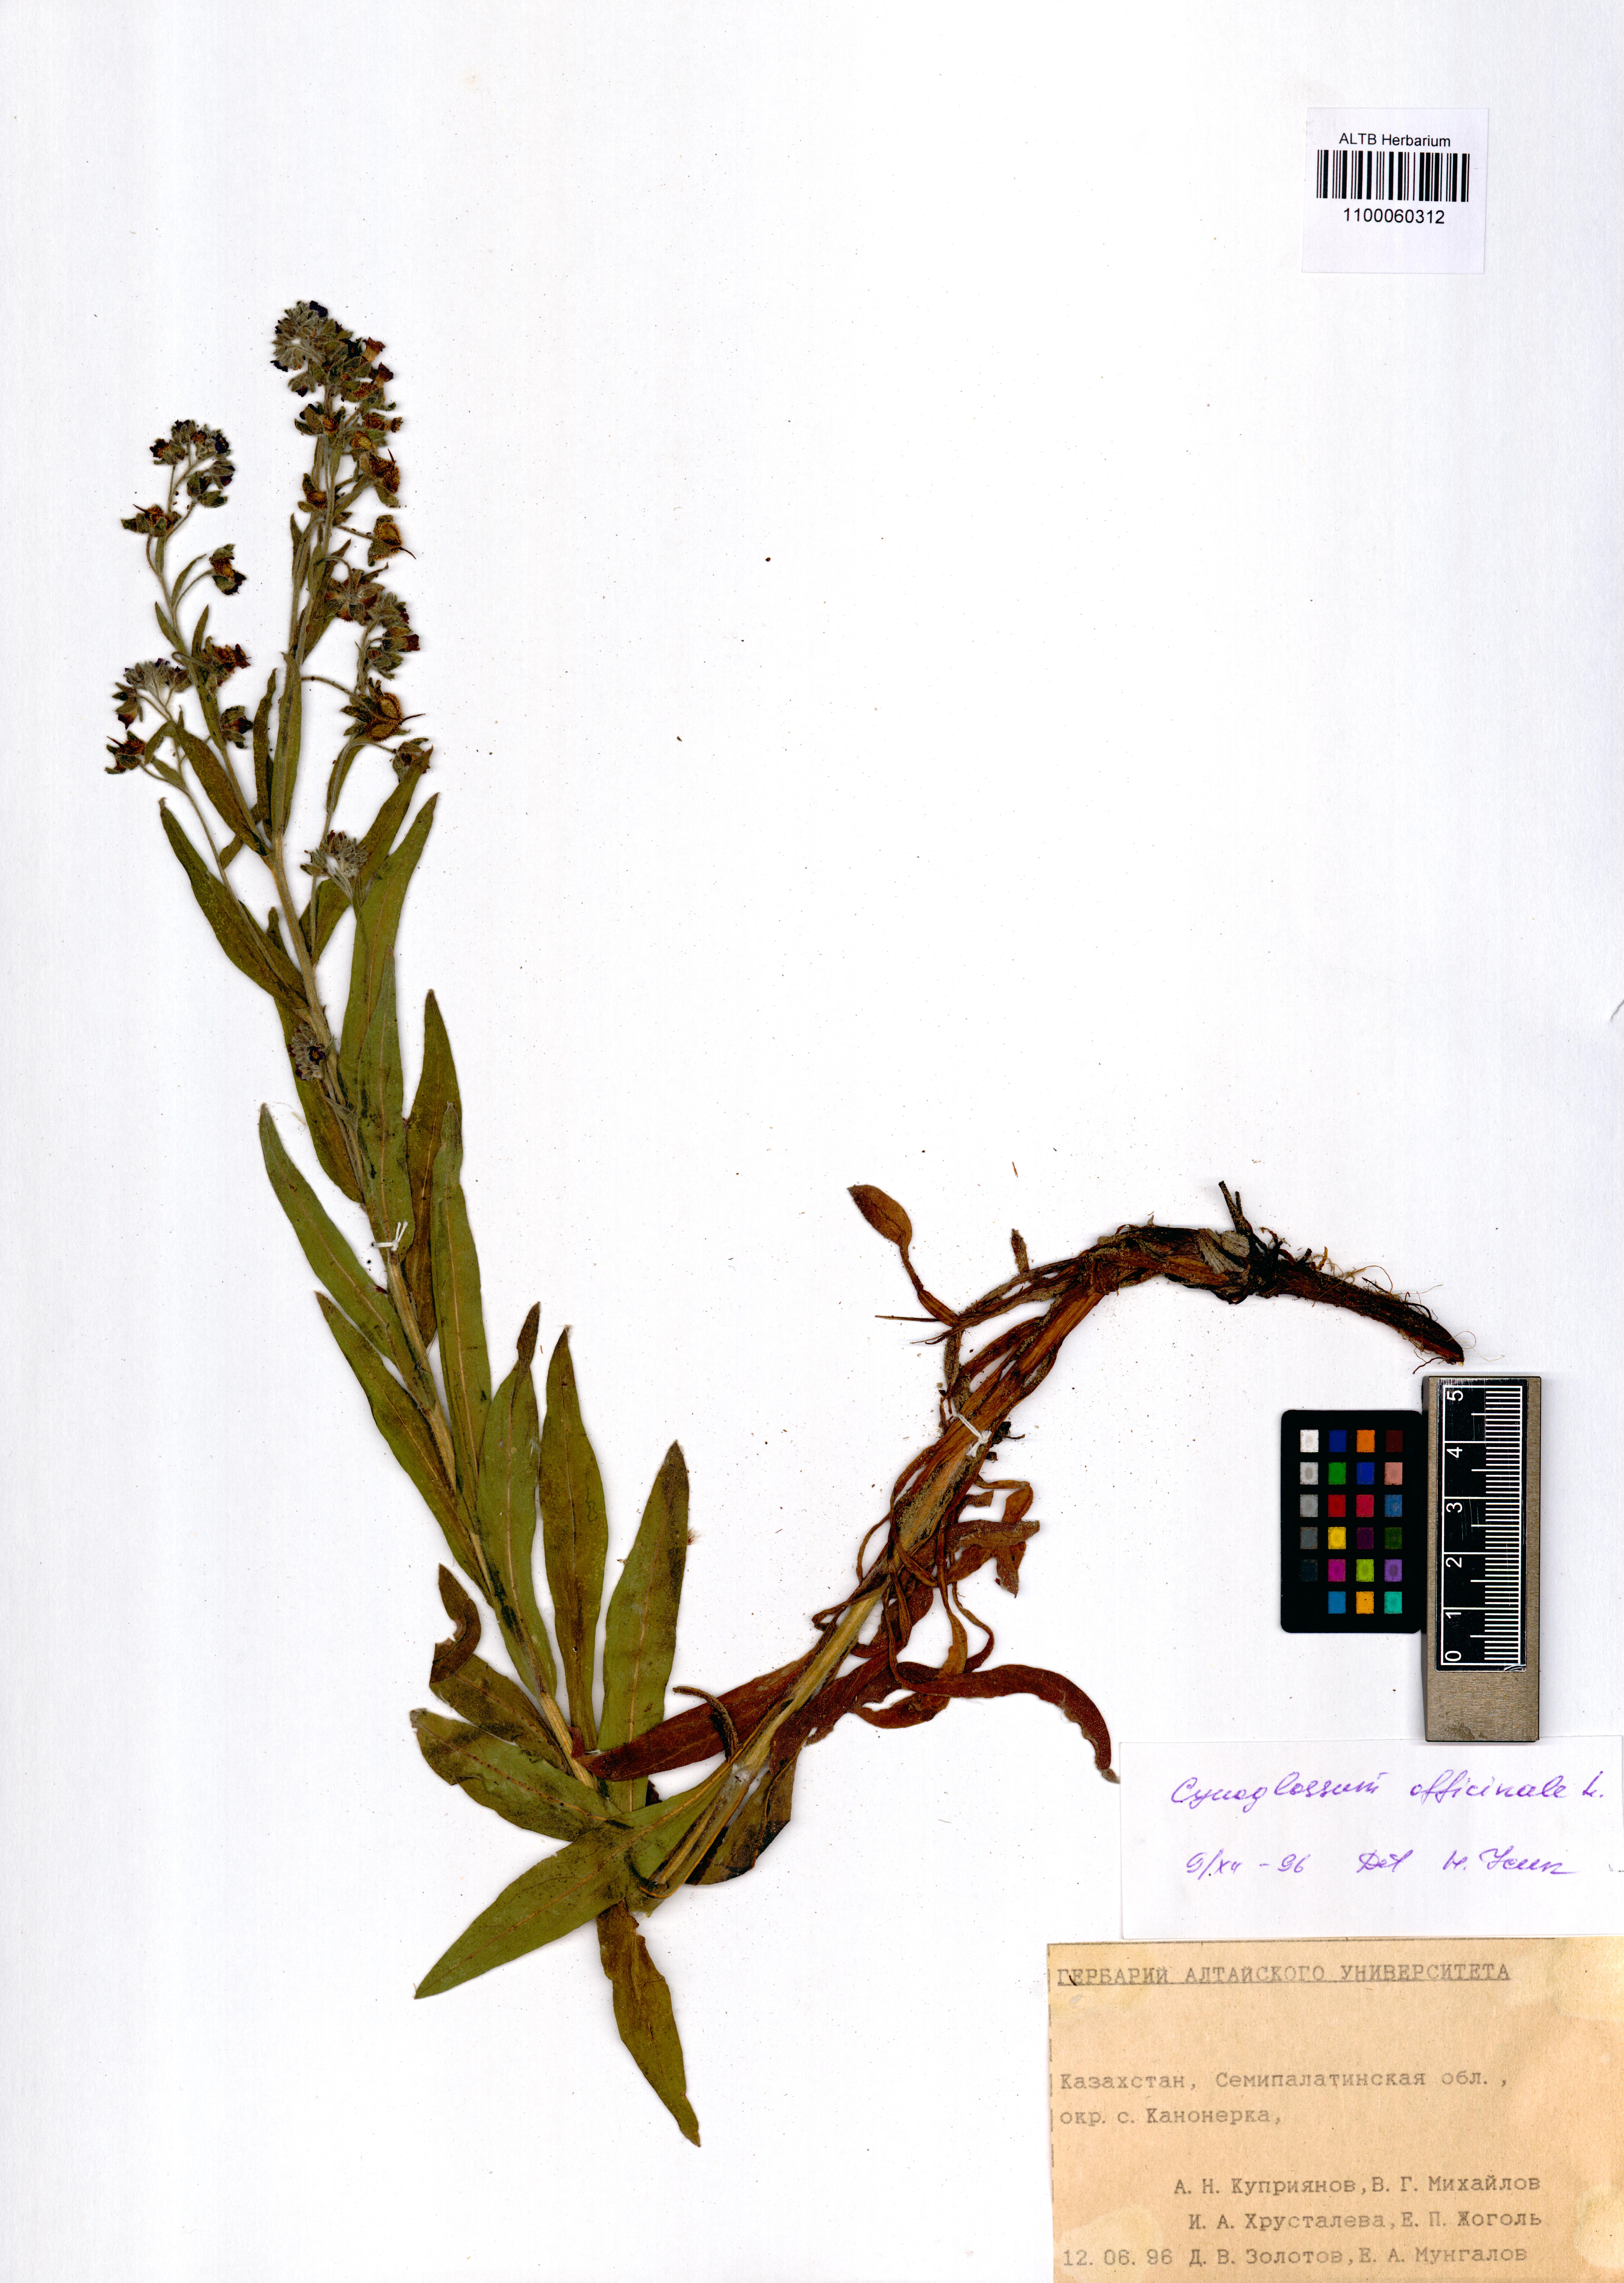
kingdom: Plantae
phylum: Tracheophyta
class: Magnoliopsida
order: Boraginales
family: Boraginaceae
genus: Cynoglossum
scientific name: Cynoglossum officinale
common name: Hound's-tongue
